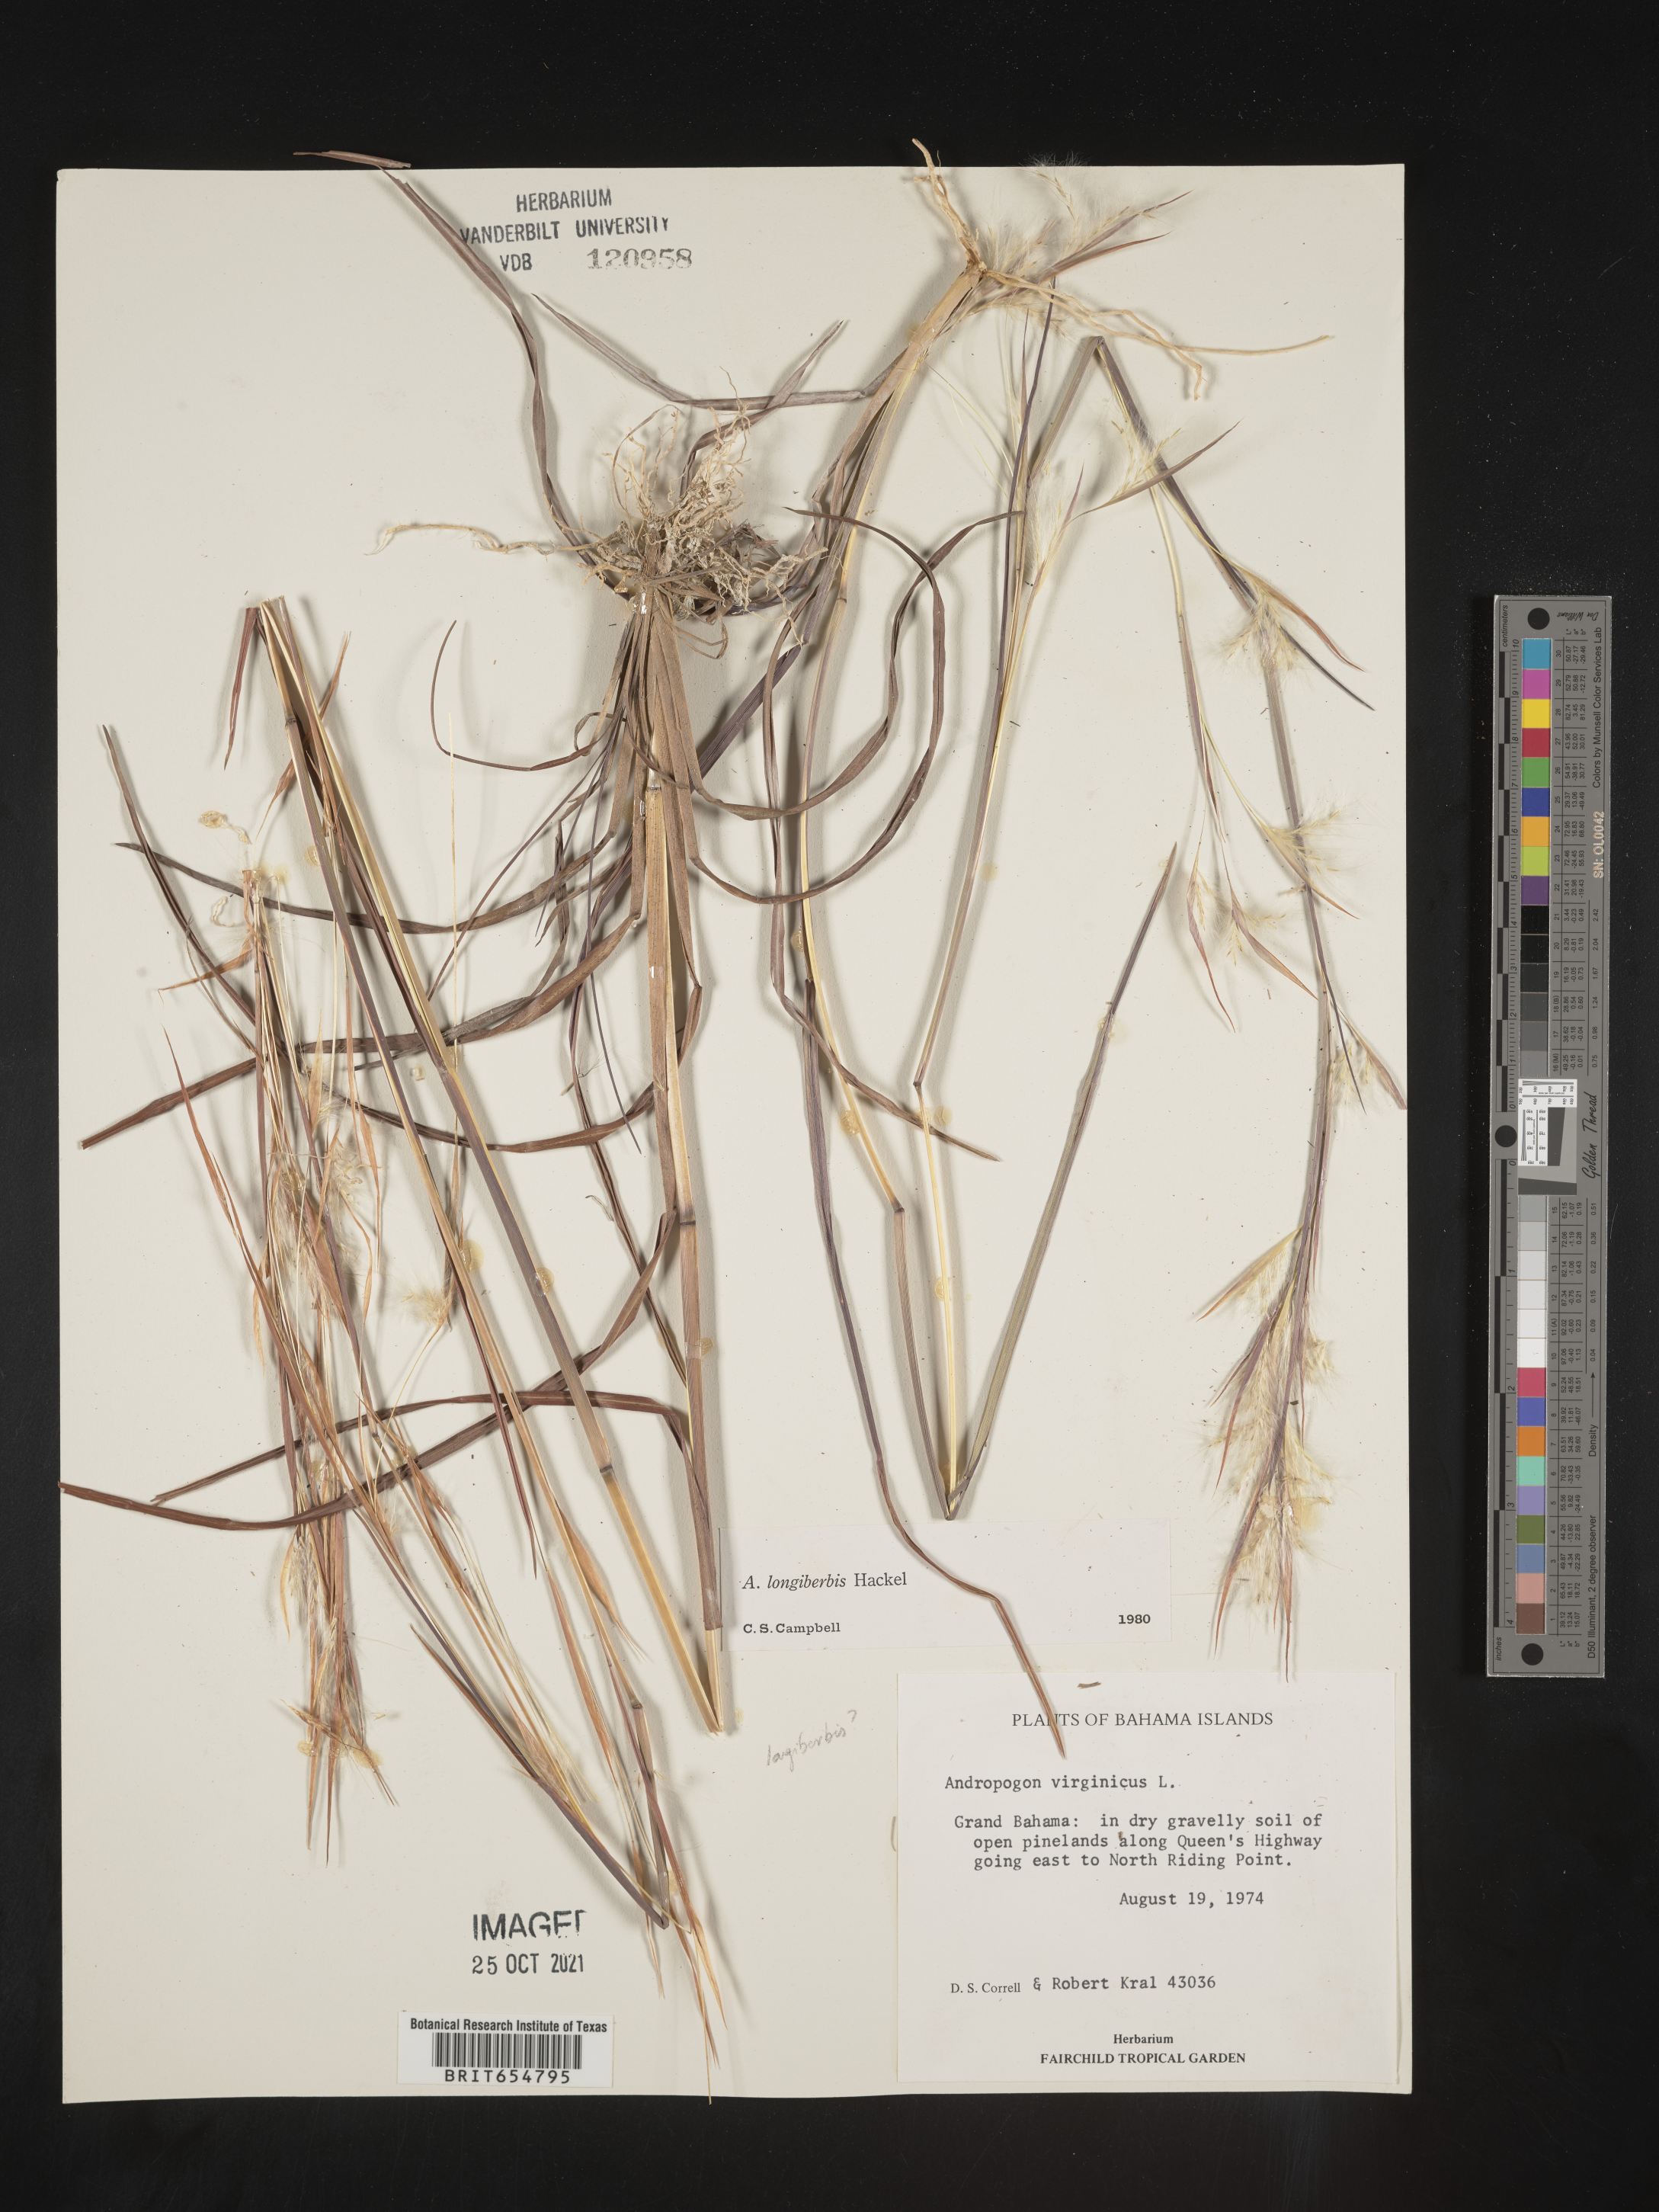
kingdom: Plantae
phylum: Tracheophyta
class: Liliopsida
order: Poales
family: Poaceae
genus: Andropogon
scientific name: Andropogon
